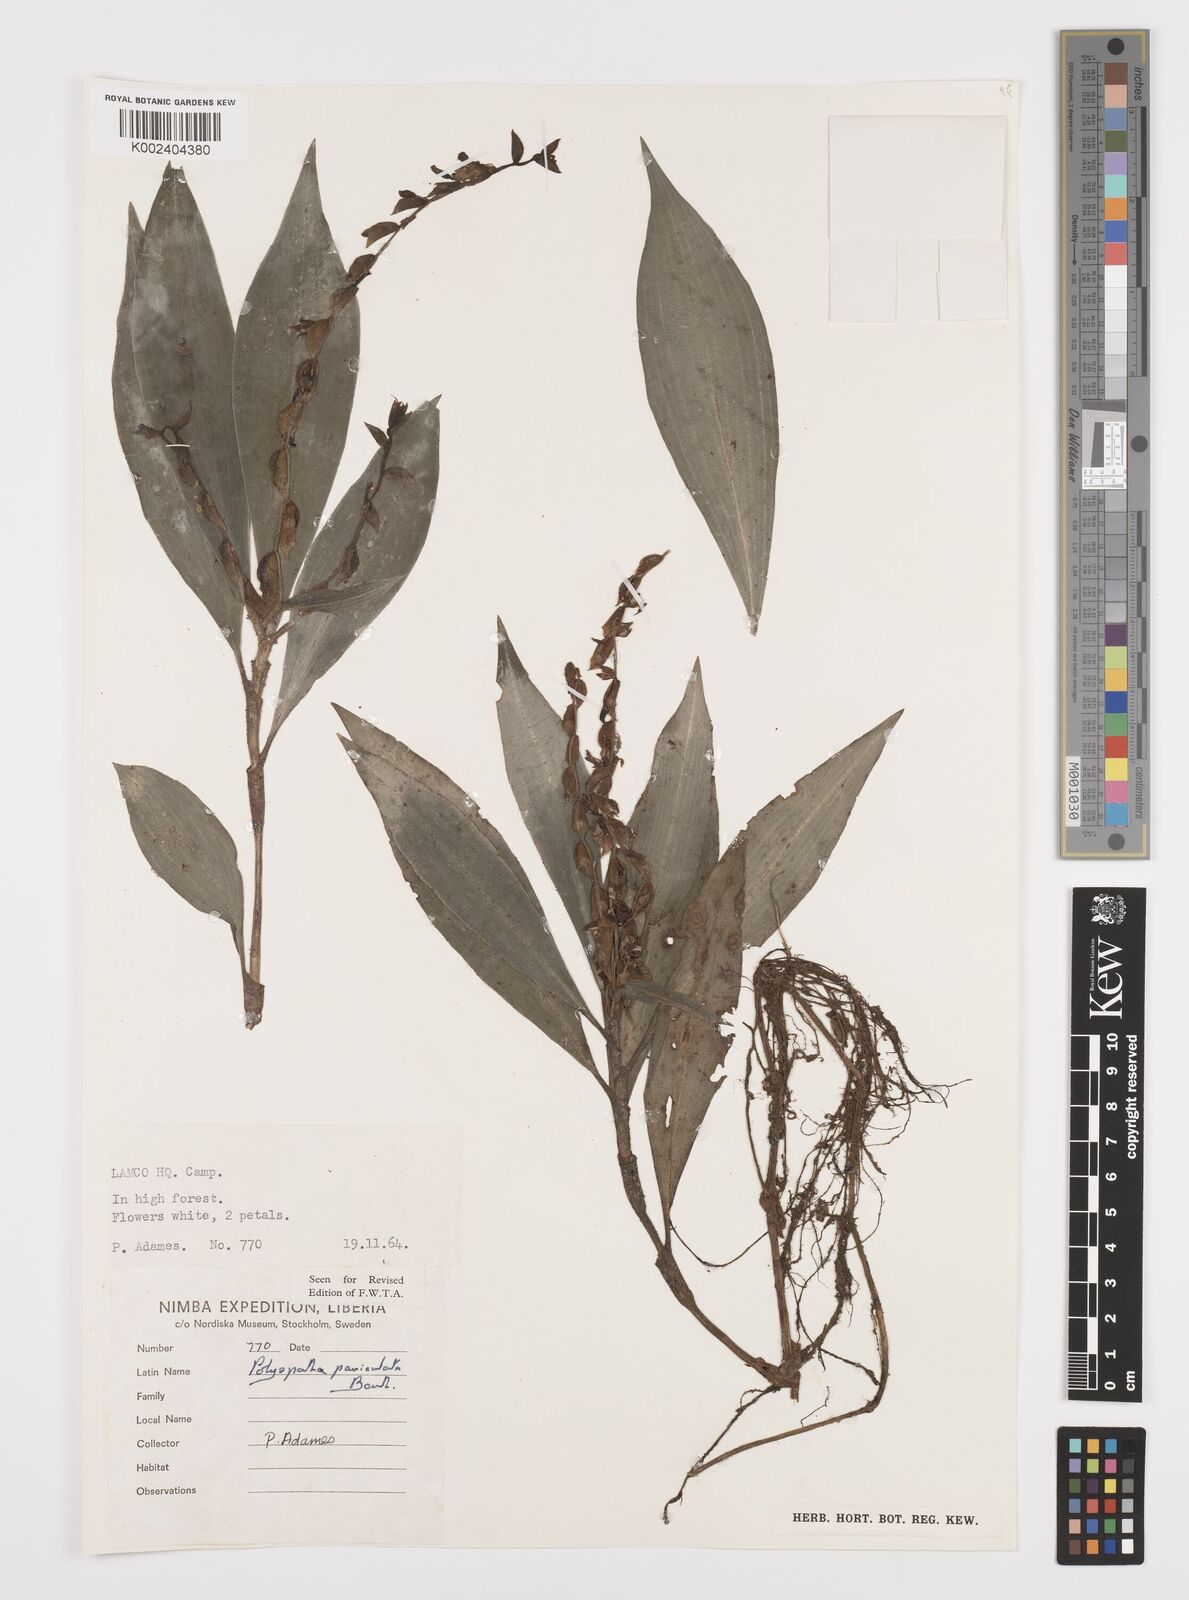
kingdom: Plantae
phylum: Tracheophyta
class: Liliopsida
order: Commelinales
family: Commelinaceae
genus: Polyspatha
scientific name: Polyspatha paniculata
